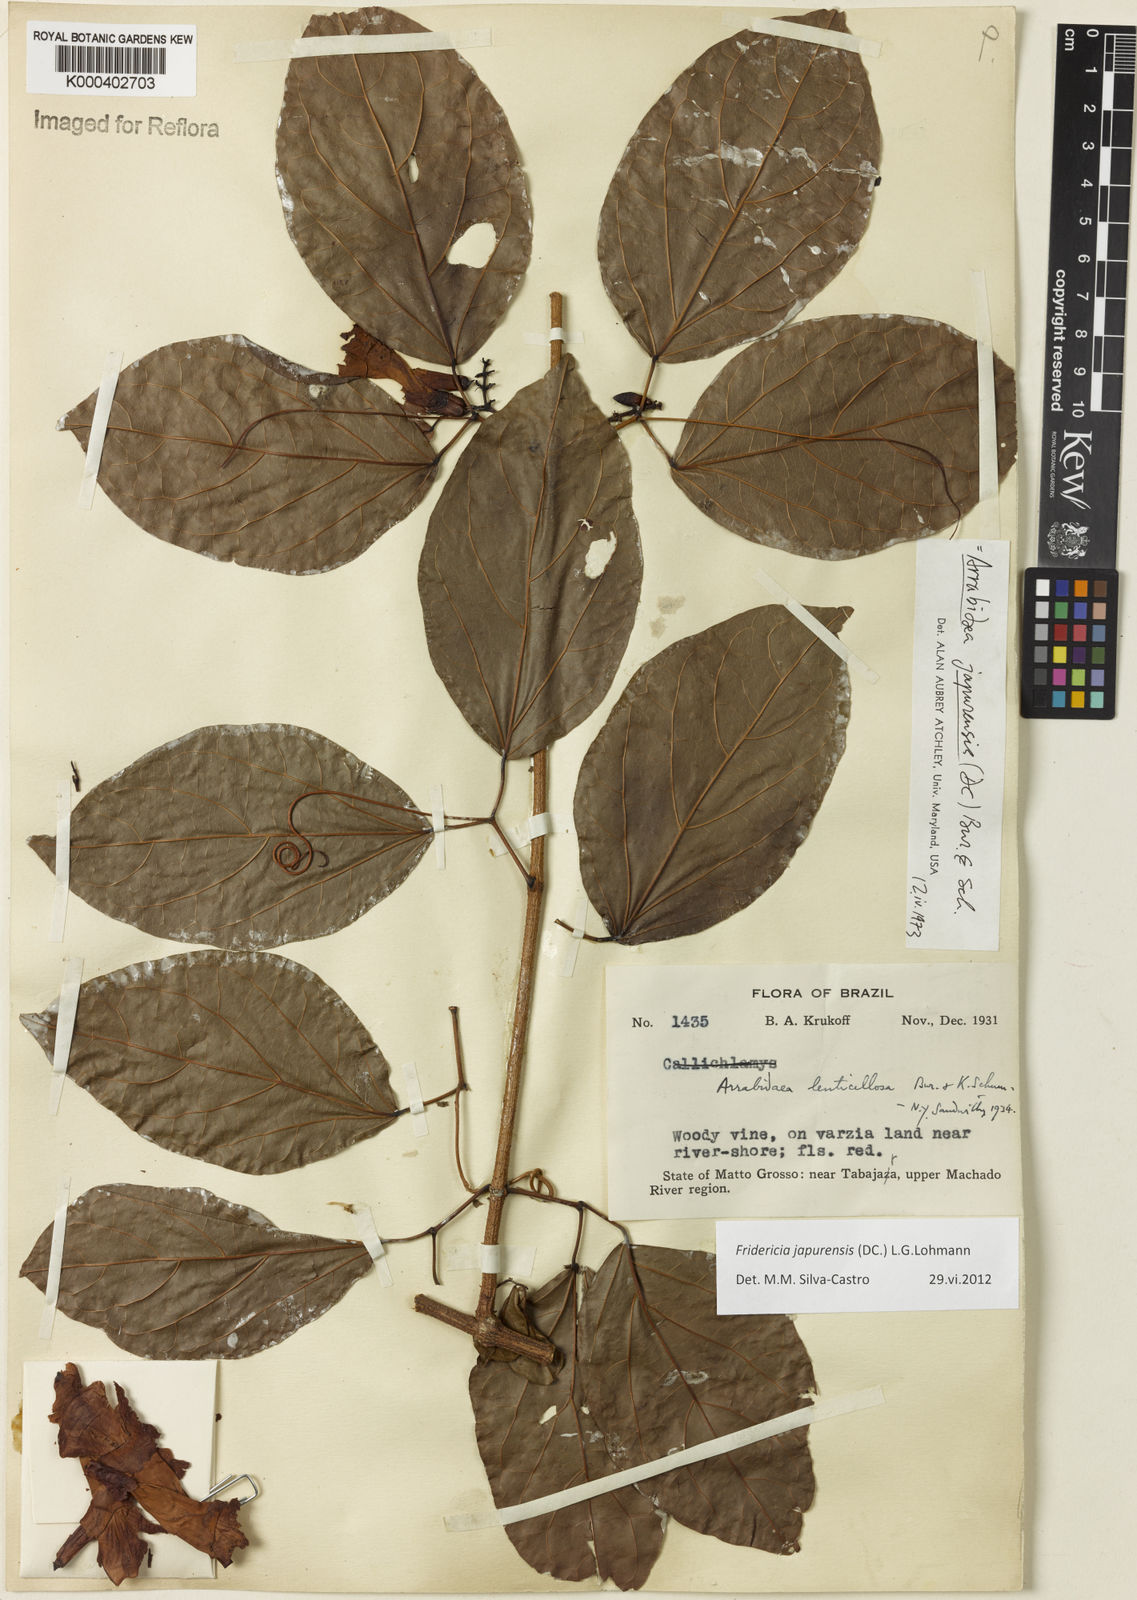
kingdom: Plantae
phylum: Tracheophyta
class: Magnoliopsida
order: Lamiales
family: Bignoniaceae
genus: Fridericia
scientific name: Fridericia japurensis
